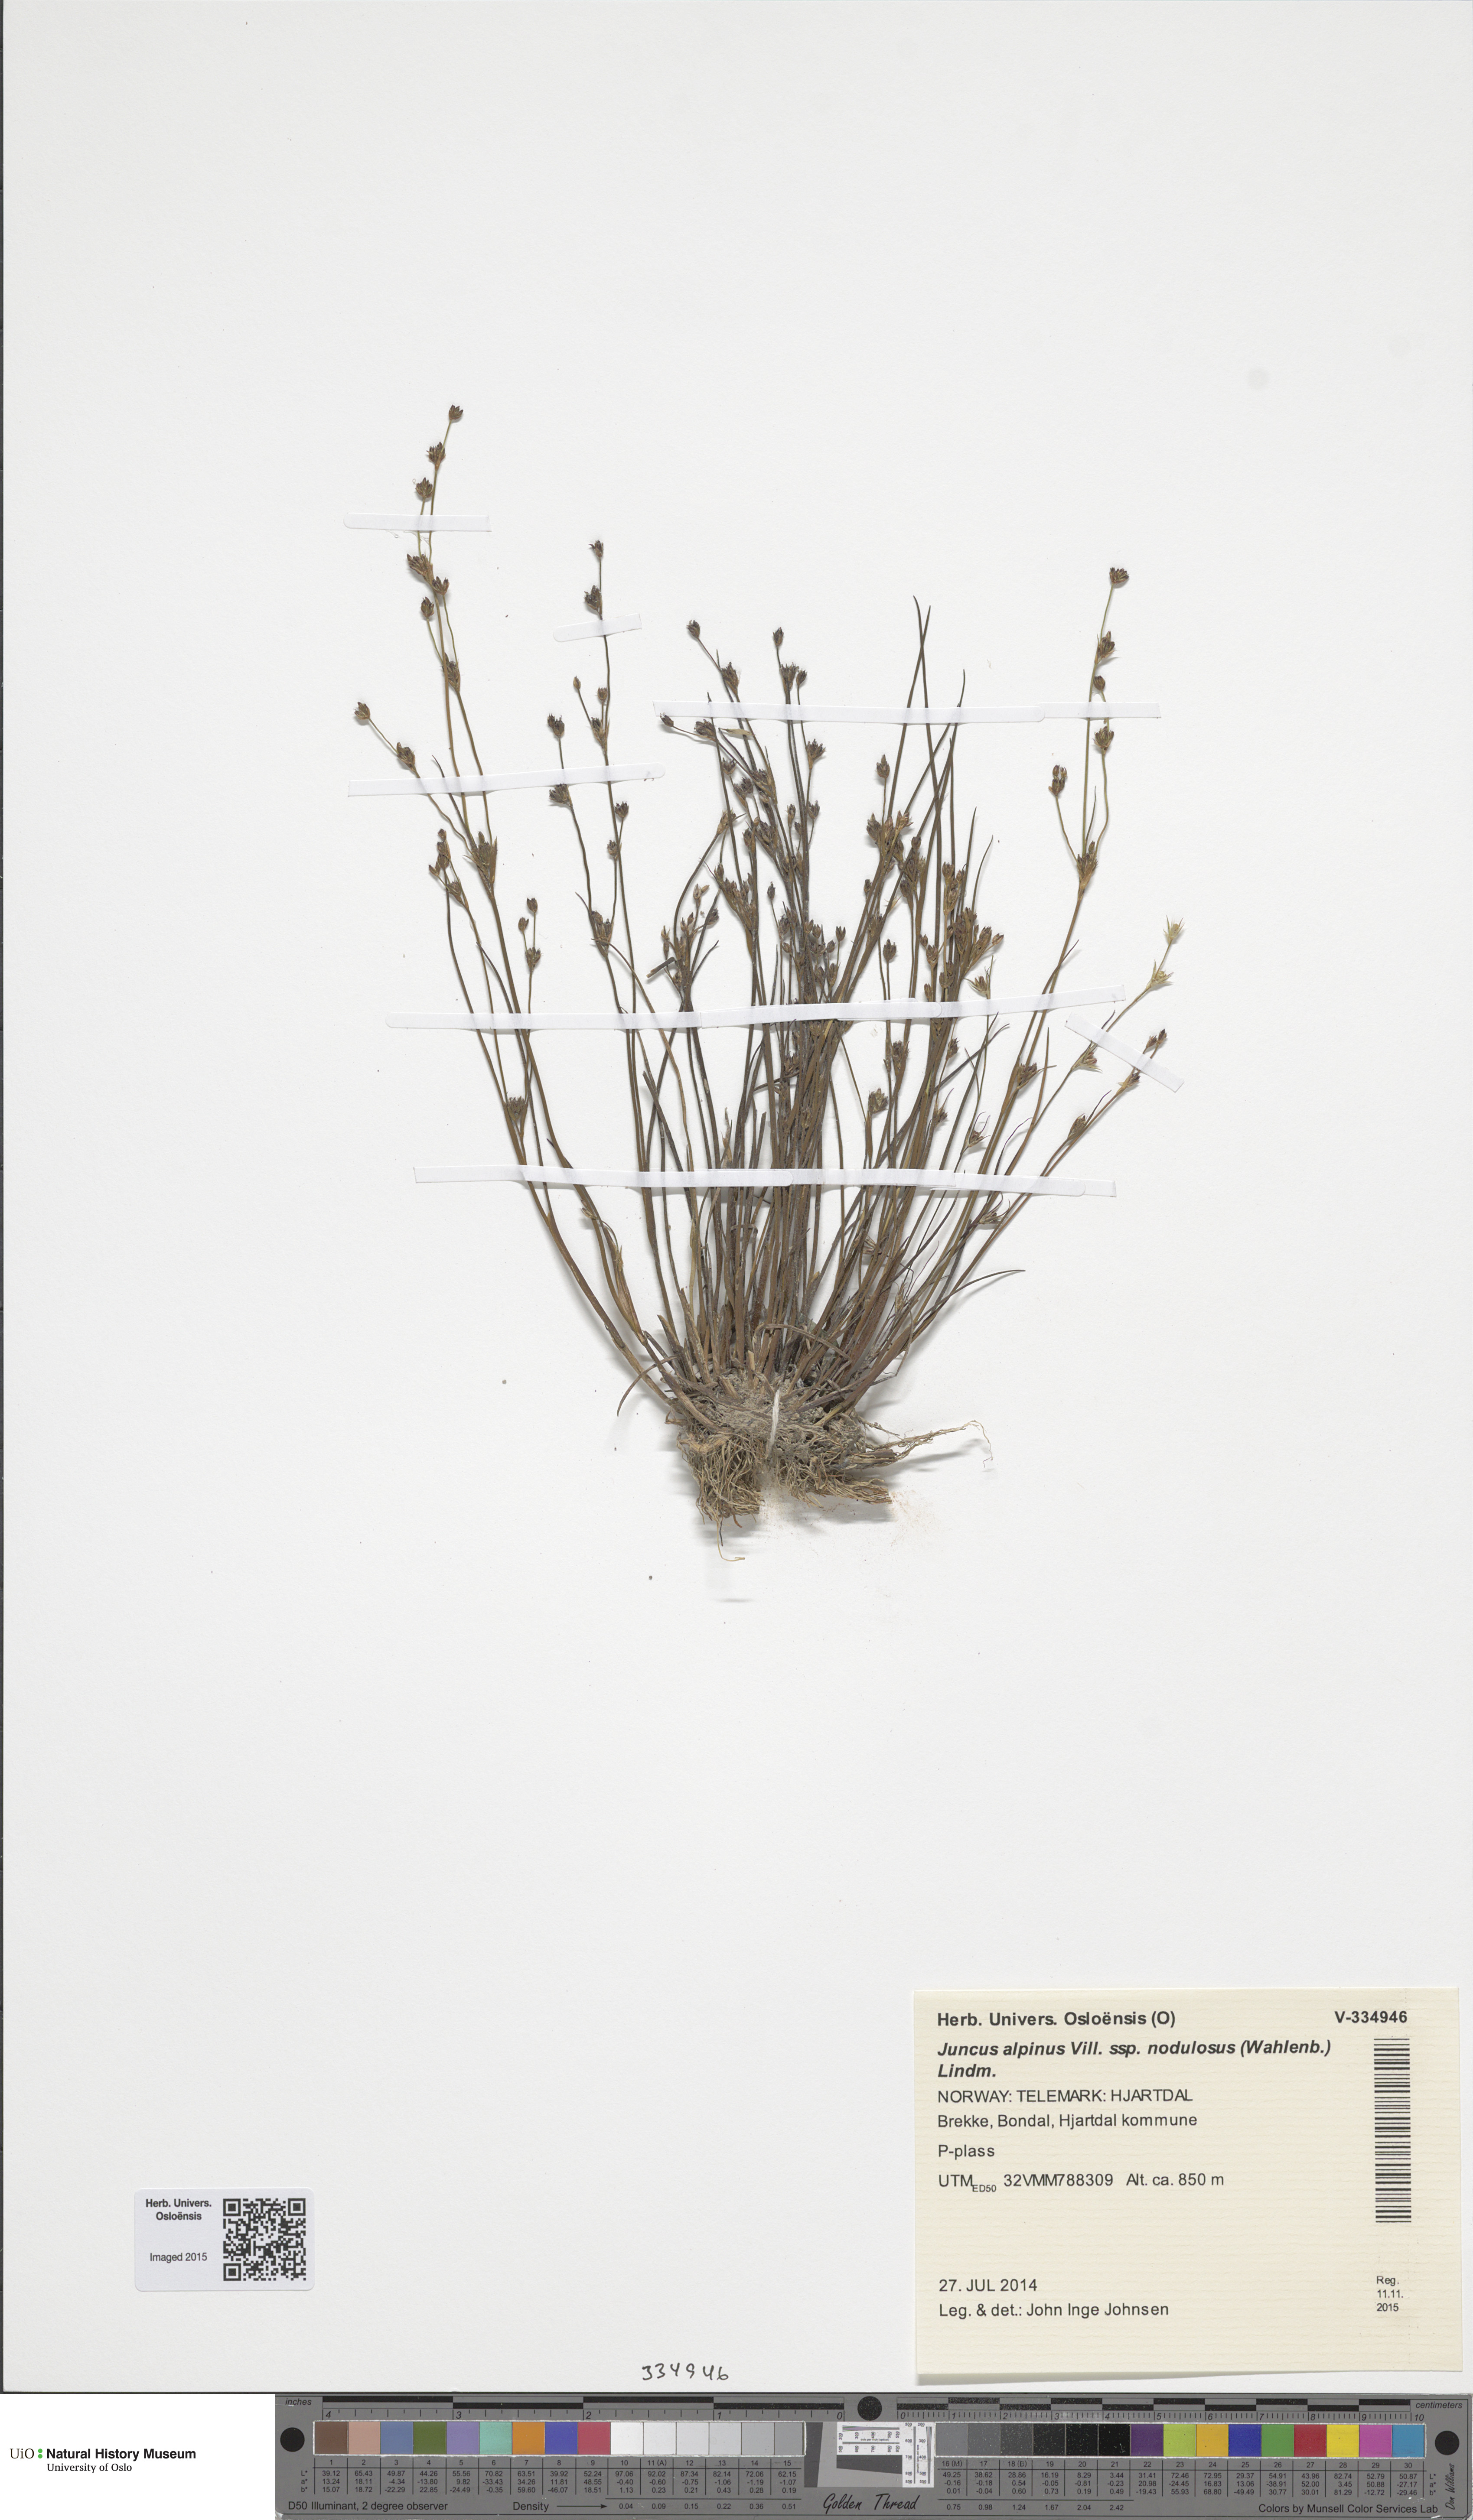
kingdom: Plantae
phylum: Tracheophyta
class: Liliopsida
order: Poales
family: Juncaceae
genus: Juncus
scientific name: Juncus alpinoarticulatus
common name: Alpine rush
